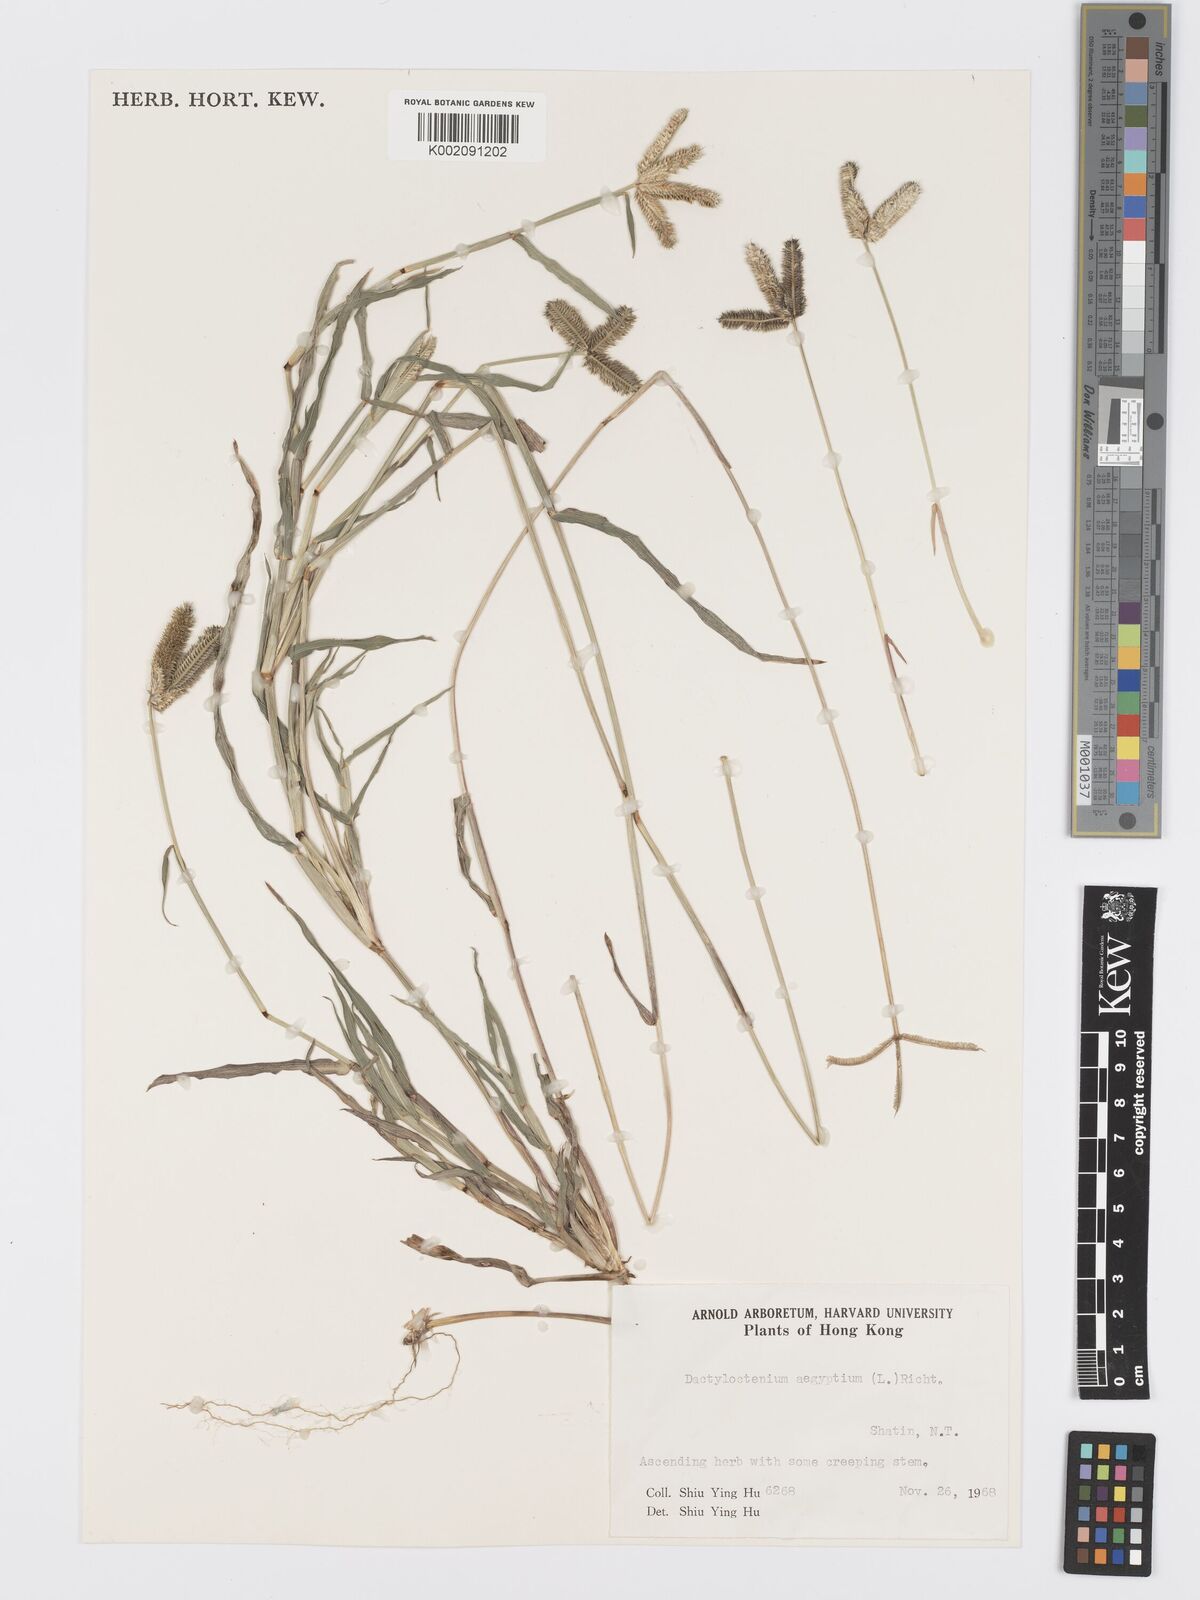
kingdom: Plantae
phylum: Tracheophyta
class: Liliopsida
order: Poales
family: Poaceae
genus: Dactyloctenium
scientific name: Dactyloctenium aegyptium
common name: Egyptian grass
